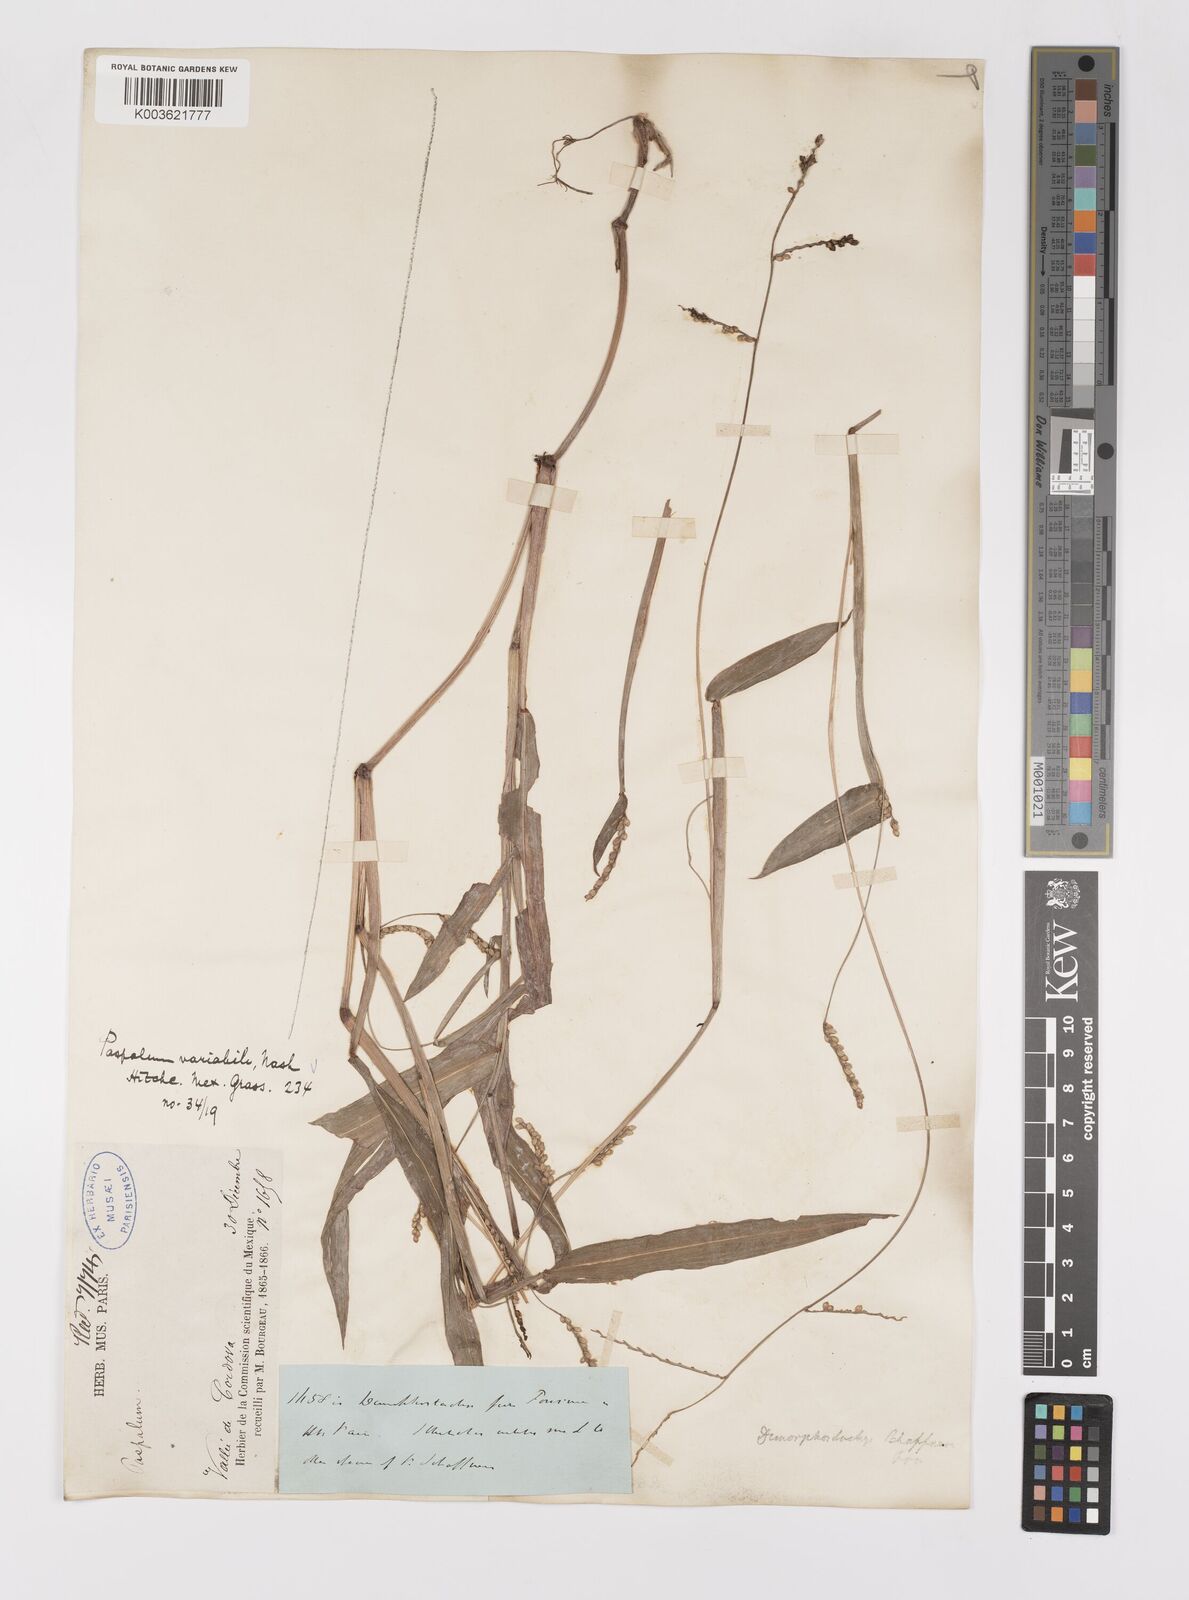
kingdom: Plantae
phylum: Tracheophyta
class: Liliopsida
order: Poales
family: Poaceae
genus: Paspalum
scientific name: Paspalum variabile
